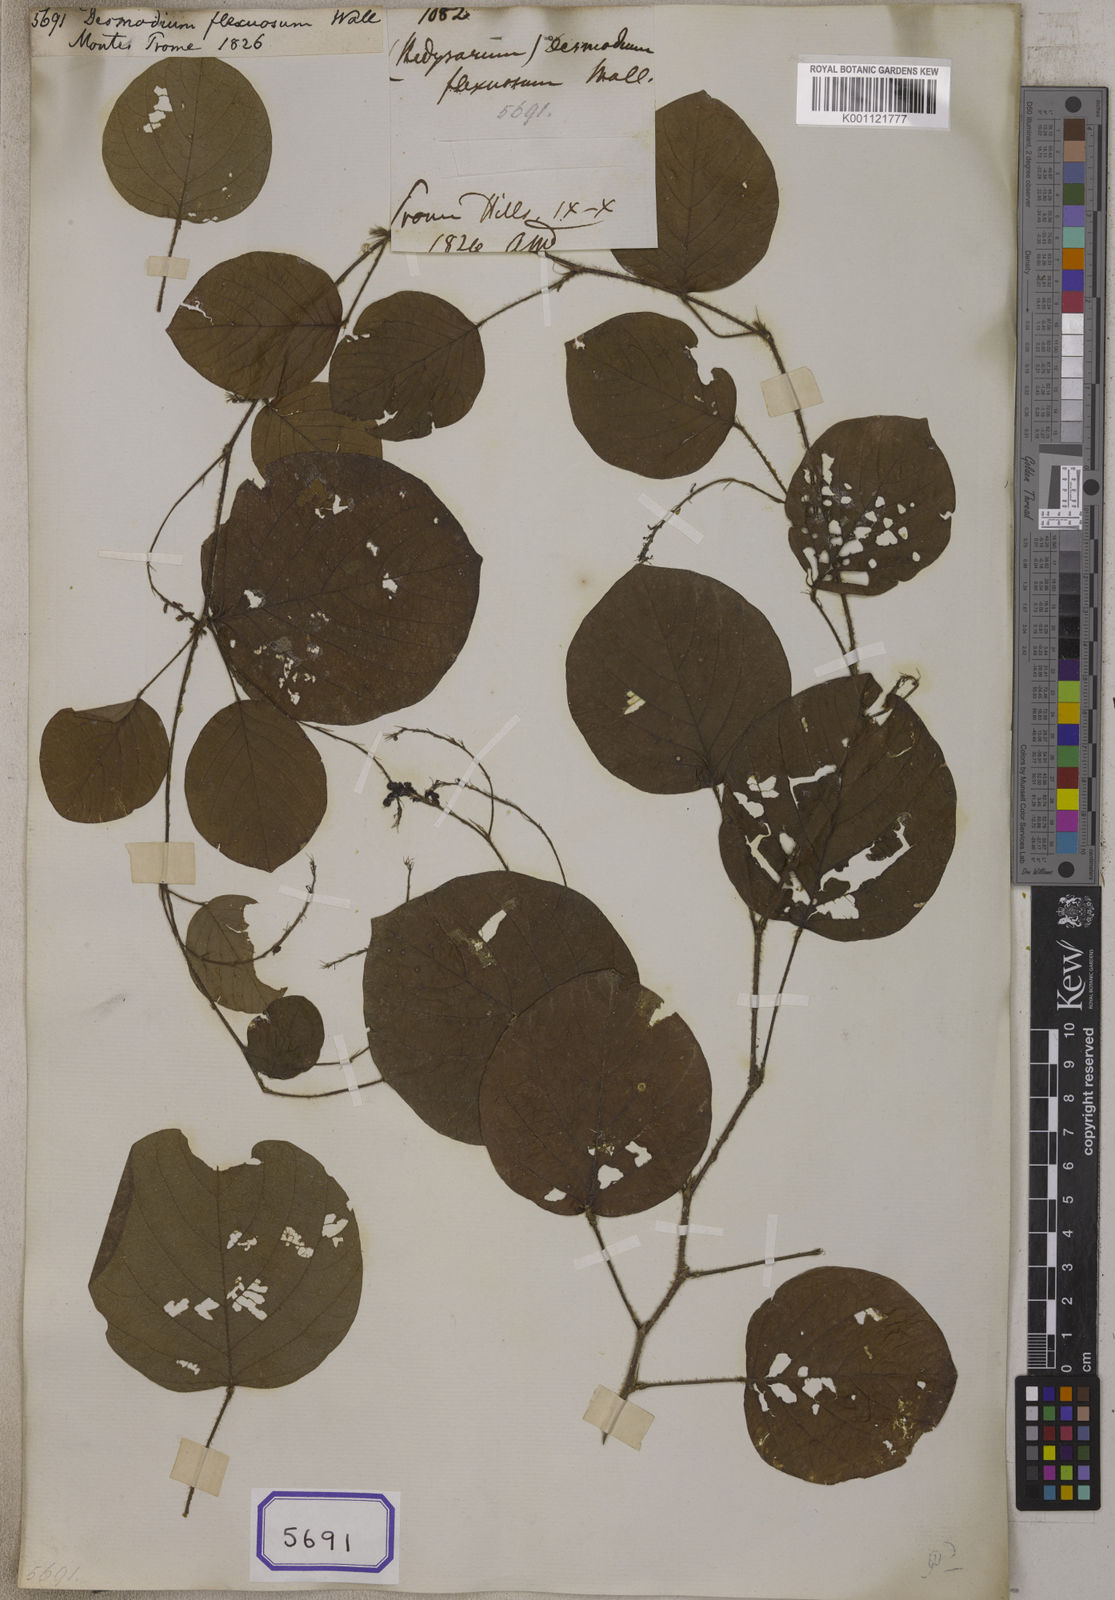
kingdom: Plantae
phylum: Tracheophyta
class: Magnoliopsida
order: Fabales
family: Fabaceae
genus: Desmodium
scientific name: Desmodium
